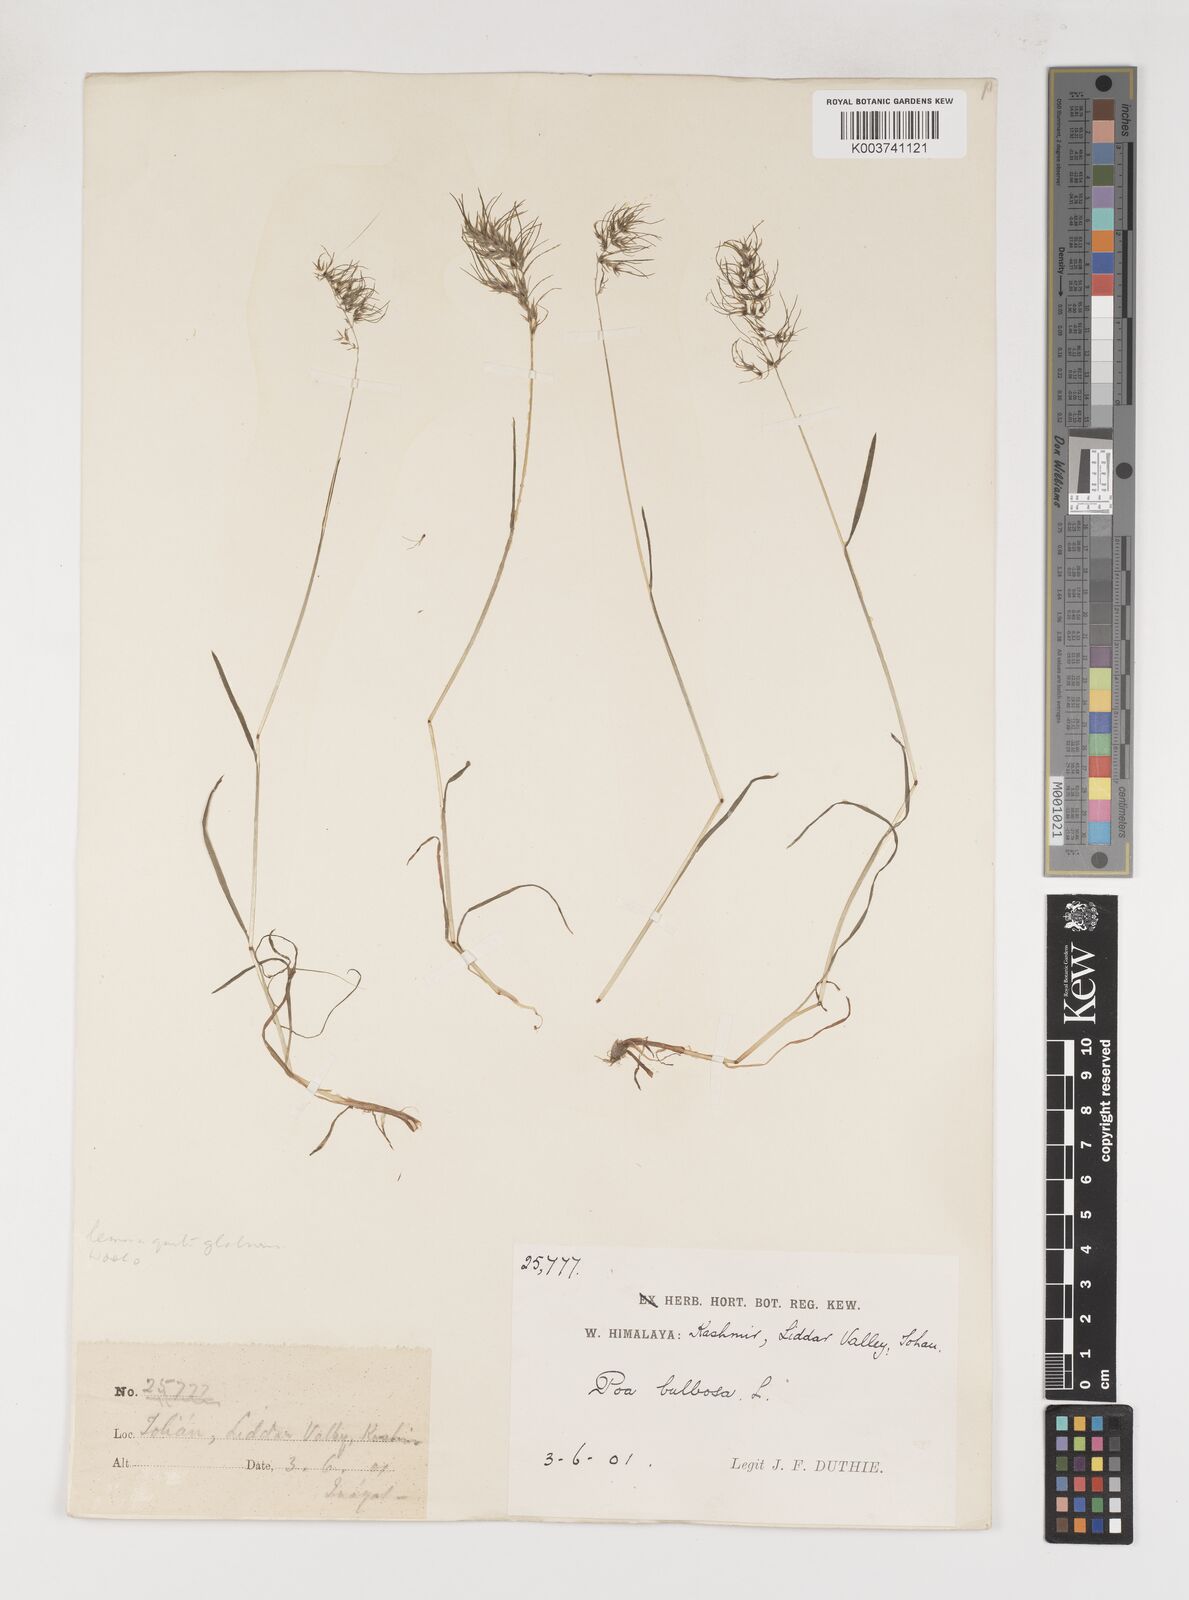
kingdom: Plantae
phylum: Tracheophyta
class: Liliopsida
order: Poales
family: Poaceae
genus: Poa
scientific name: Poa bulbosa
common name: Bulbous bluegrass
